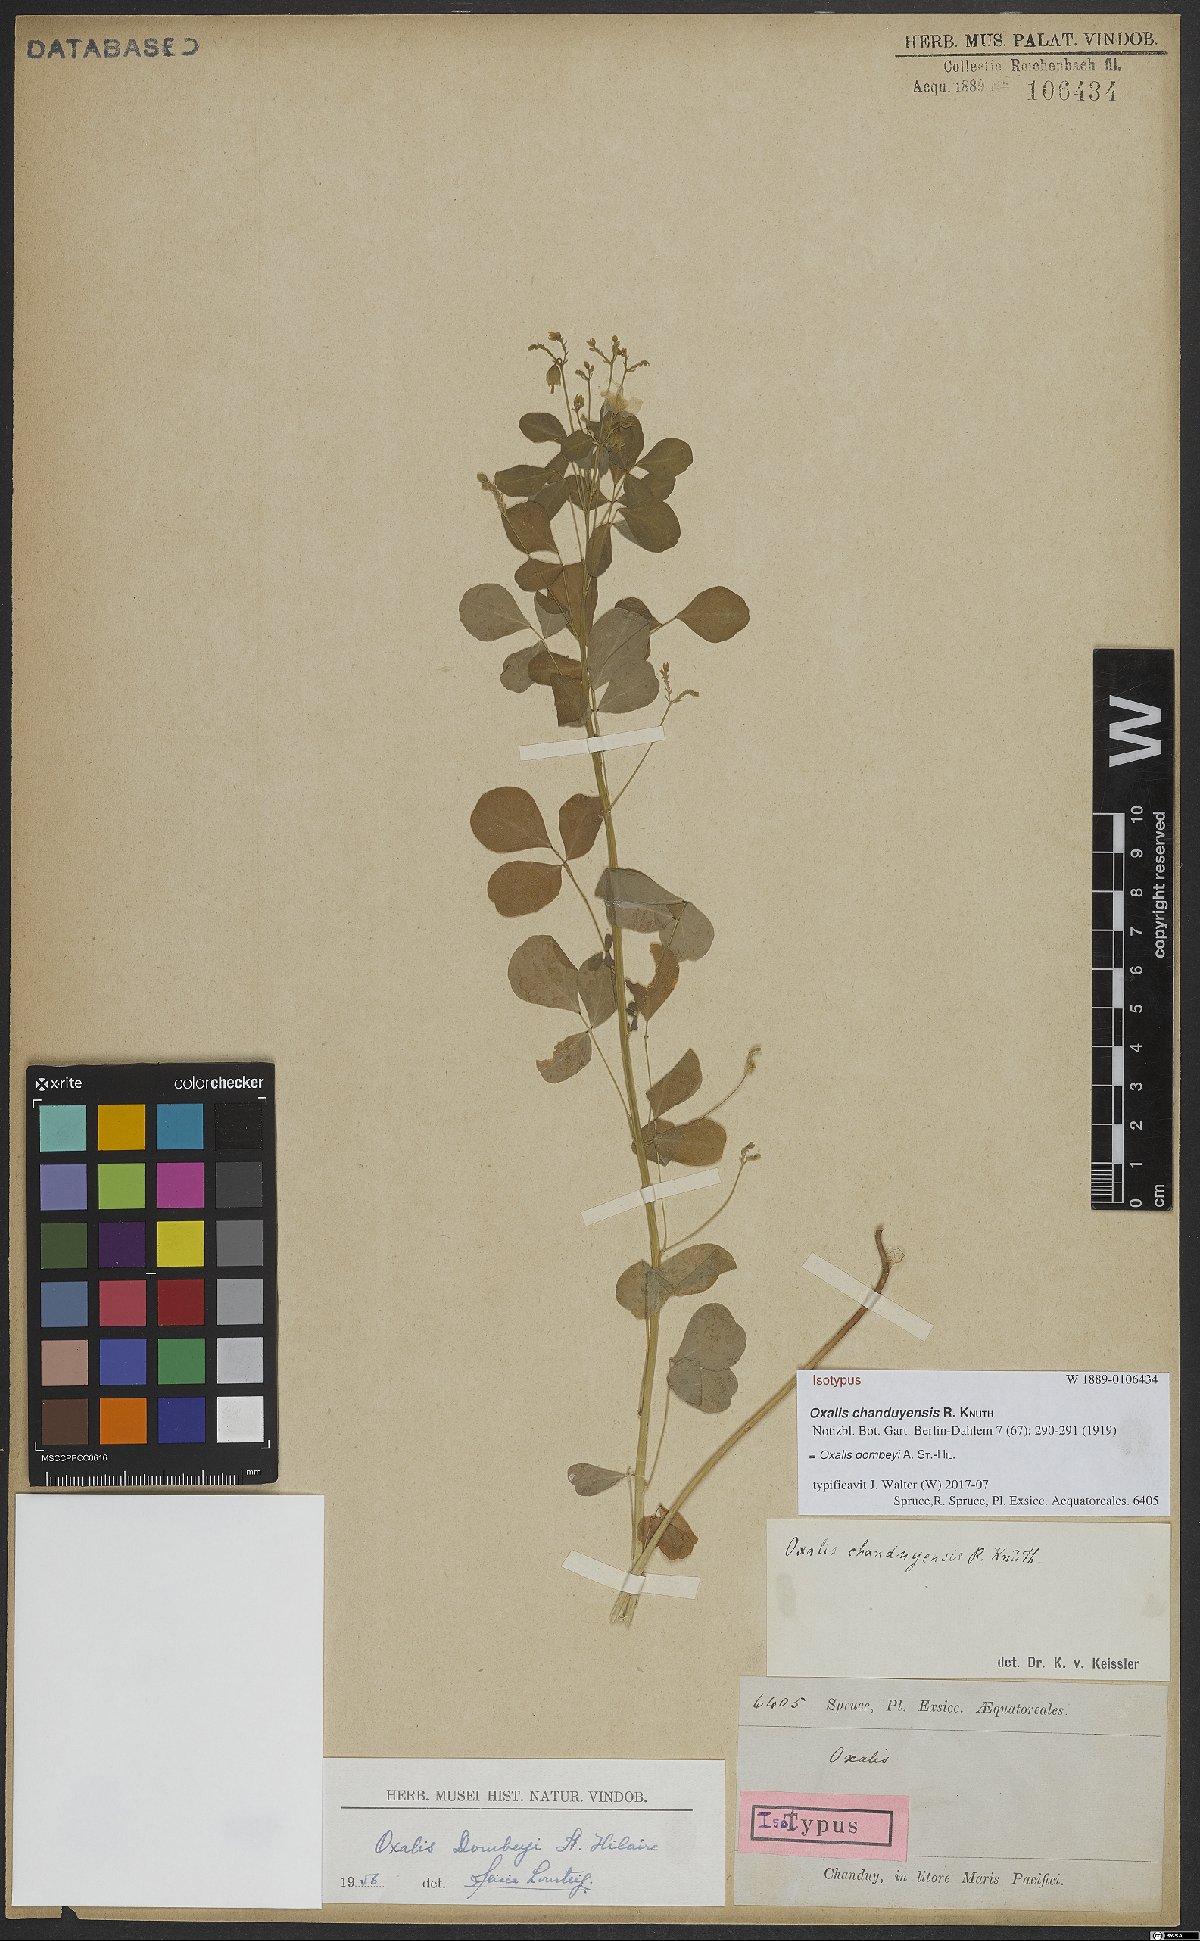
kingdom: Plantae
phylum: Tracheophyta
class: Magnoliopsida
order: Oxalidales
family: Oxalidaceae
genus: Oxalis
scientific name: Oxalis dombeyi
